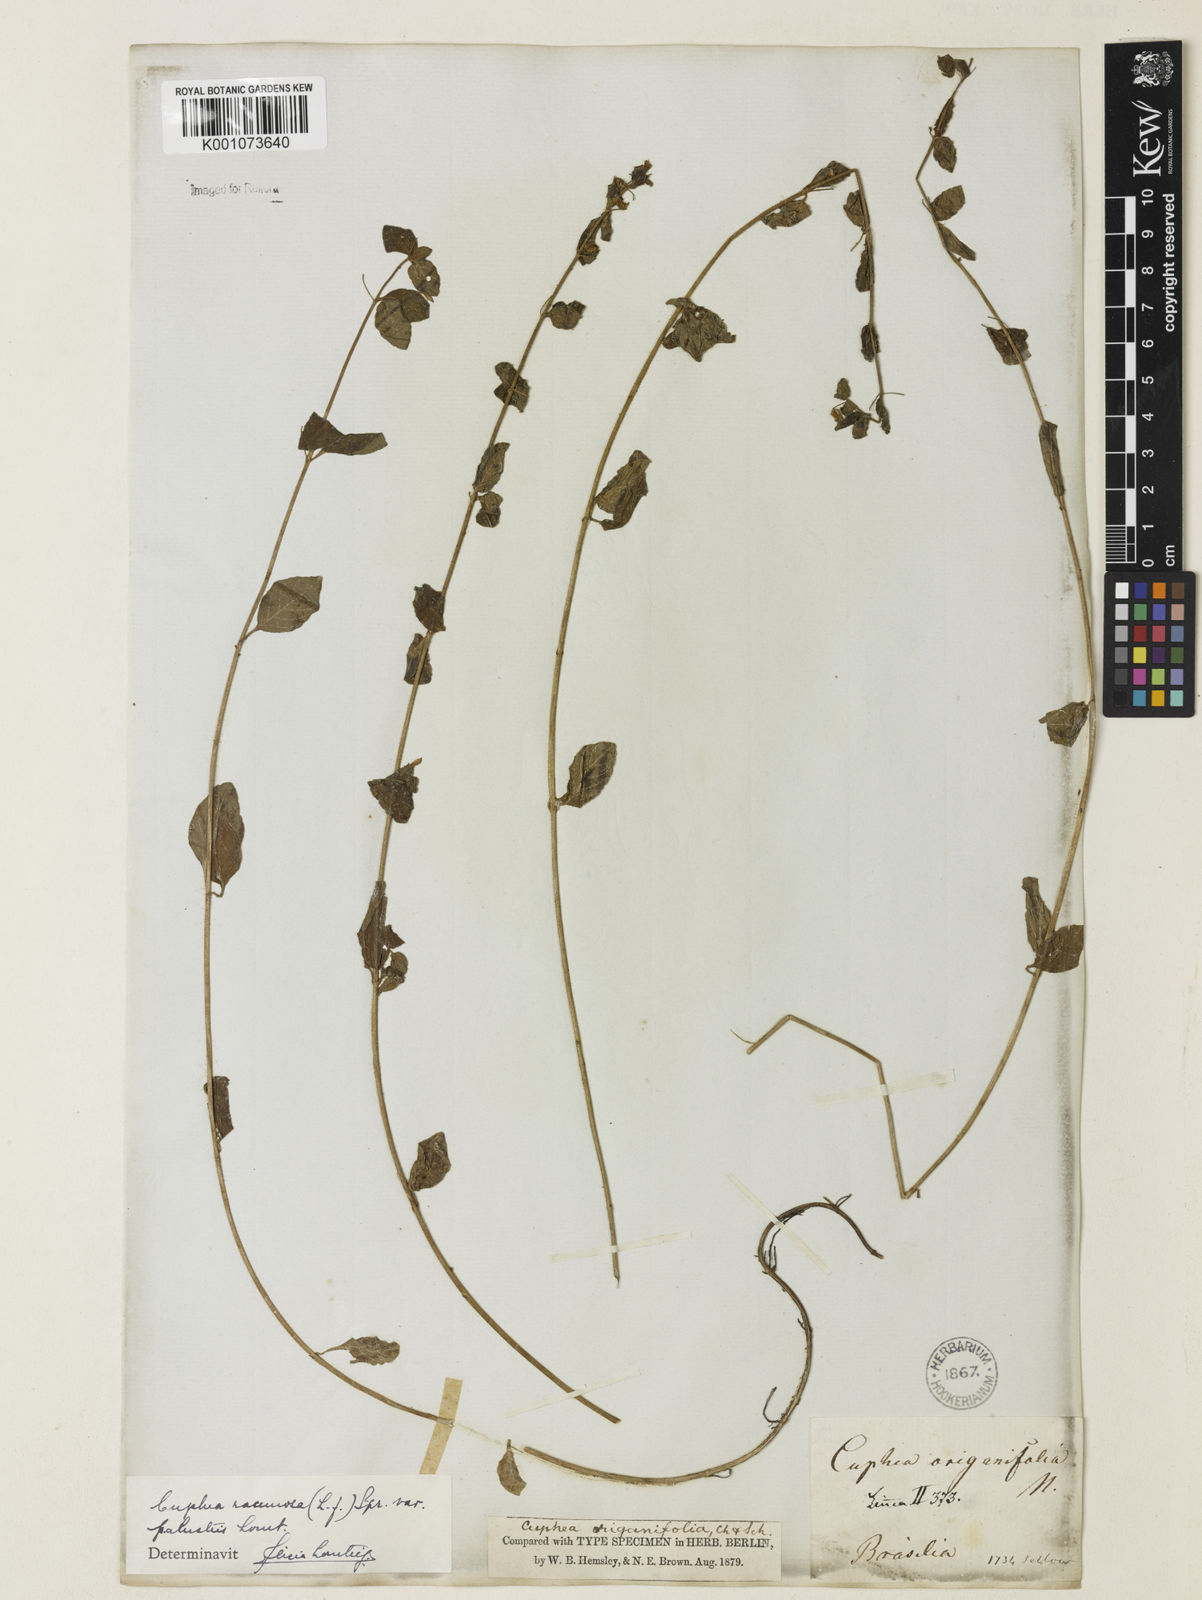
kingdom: Plantae
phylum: Tracheophyta
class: Magnoliopsida
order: Myrtales
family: Lythraceae
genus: Cuphea
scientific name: Cuphea racemosa
